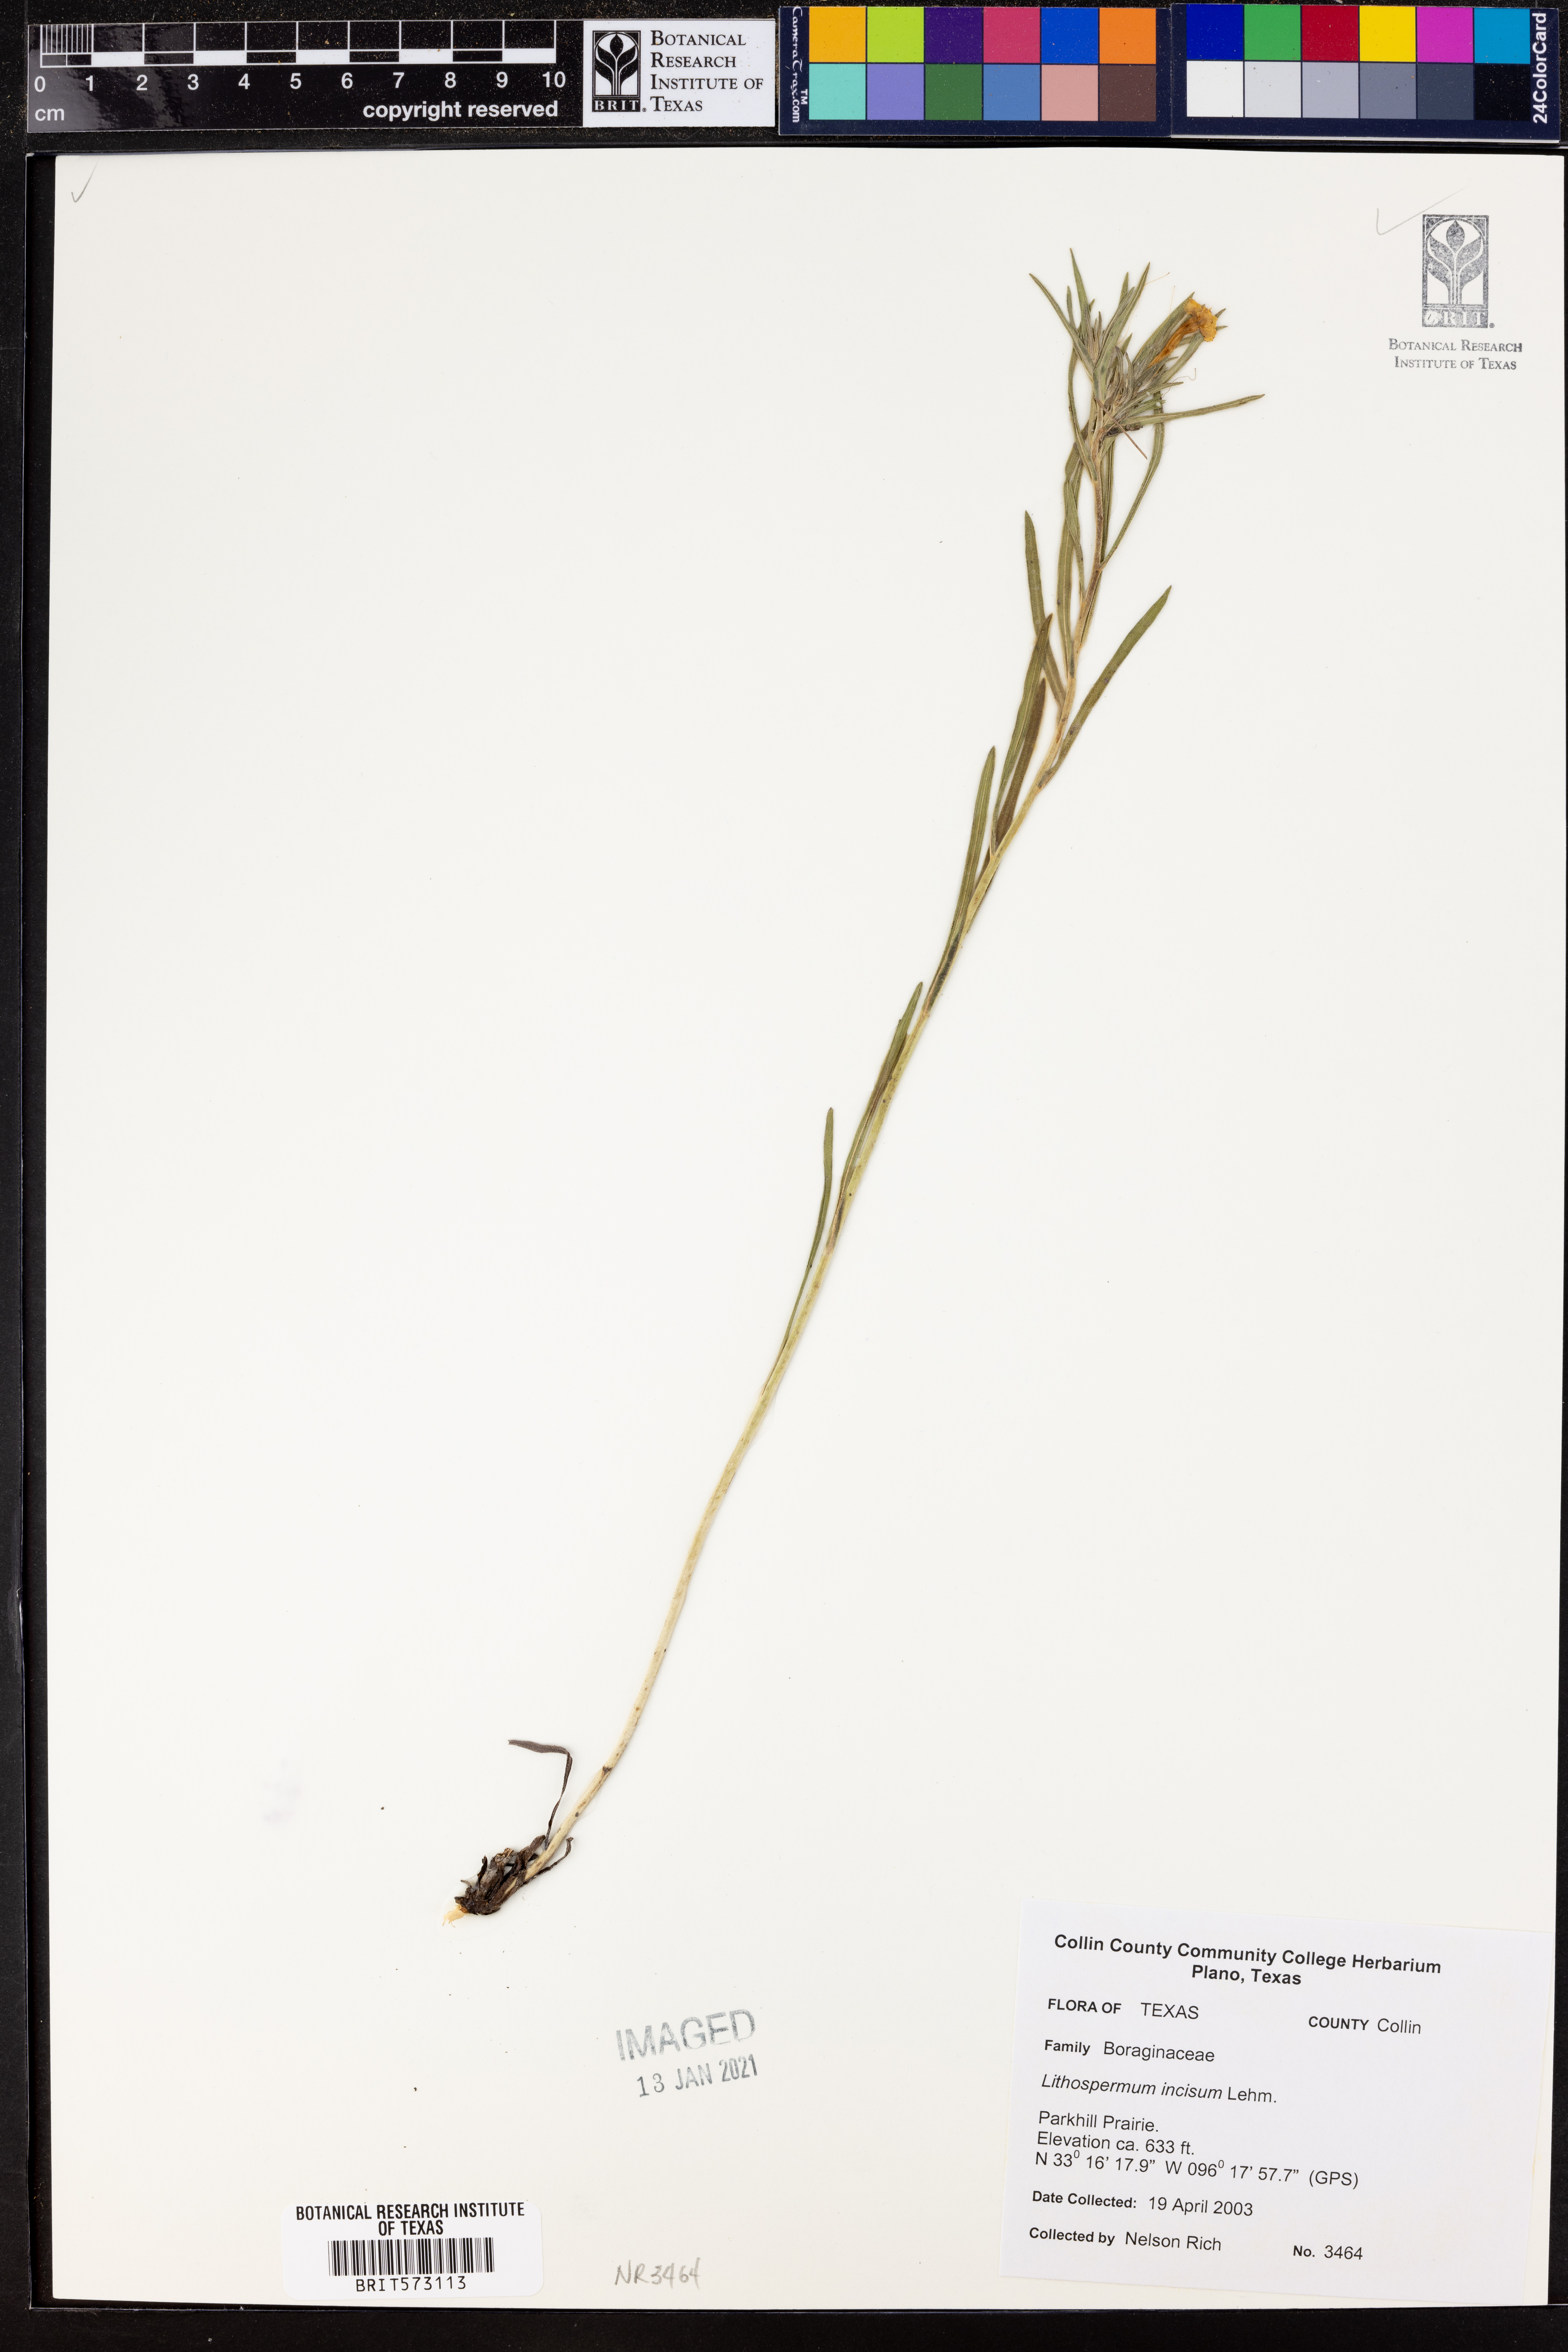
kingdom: Plantae
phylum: Tracheophyta
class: Magnoliopsida
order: Boraginales
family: Boraginaceae
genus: Lithospermum
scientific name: Lithospermum incisum
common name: Fringed gromwell
